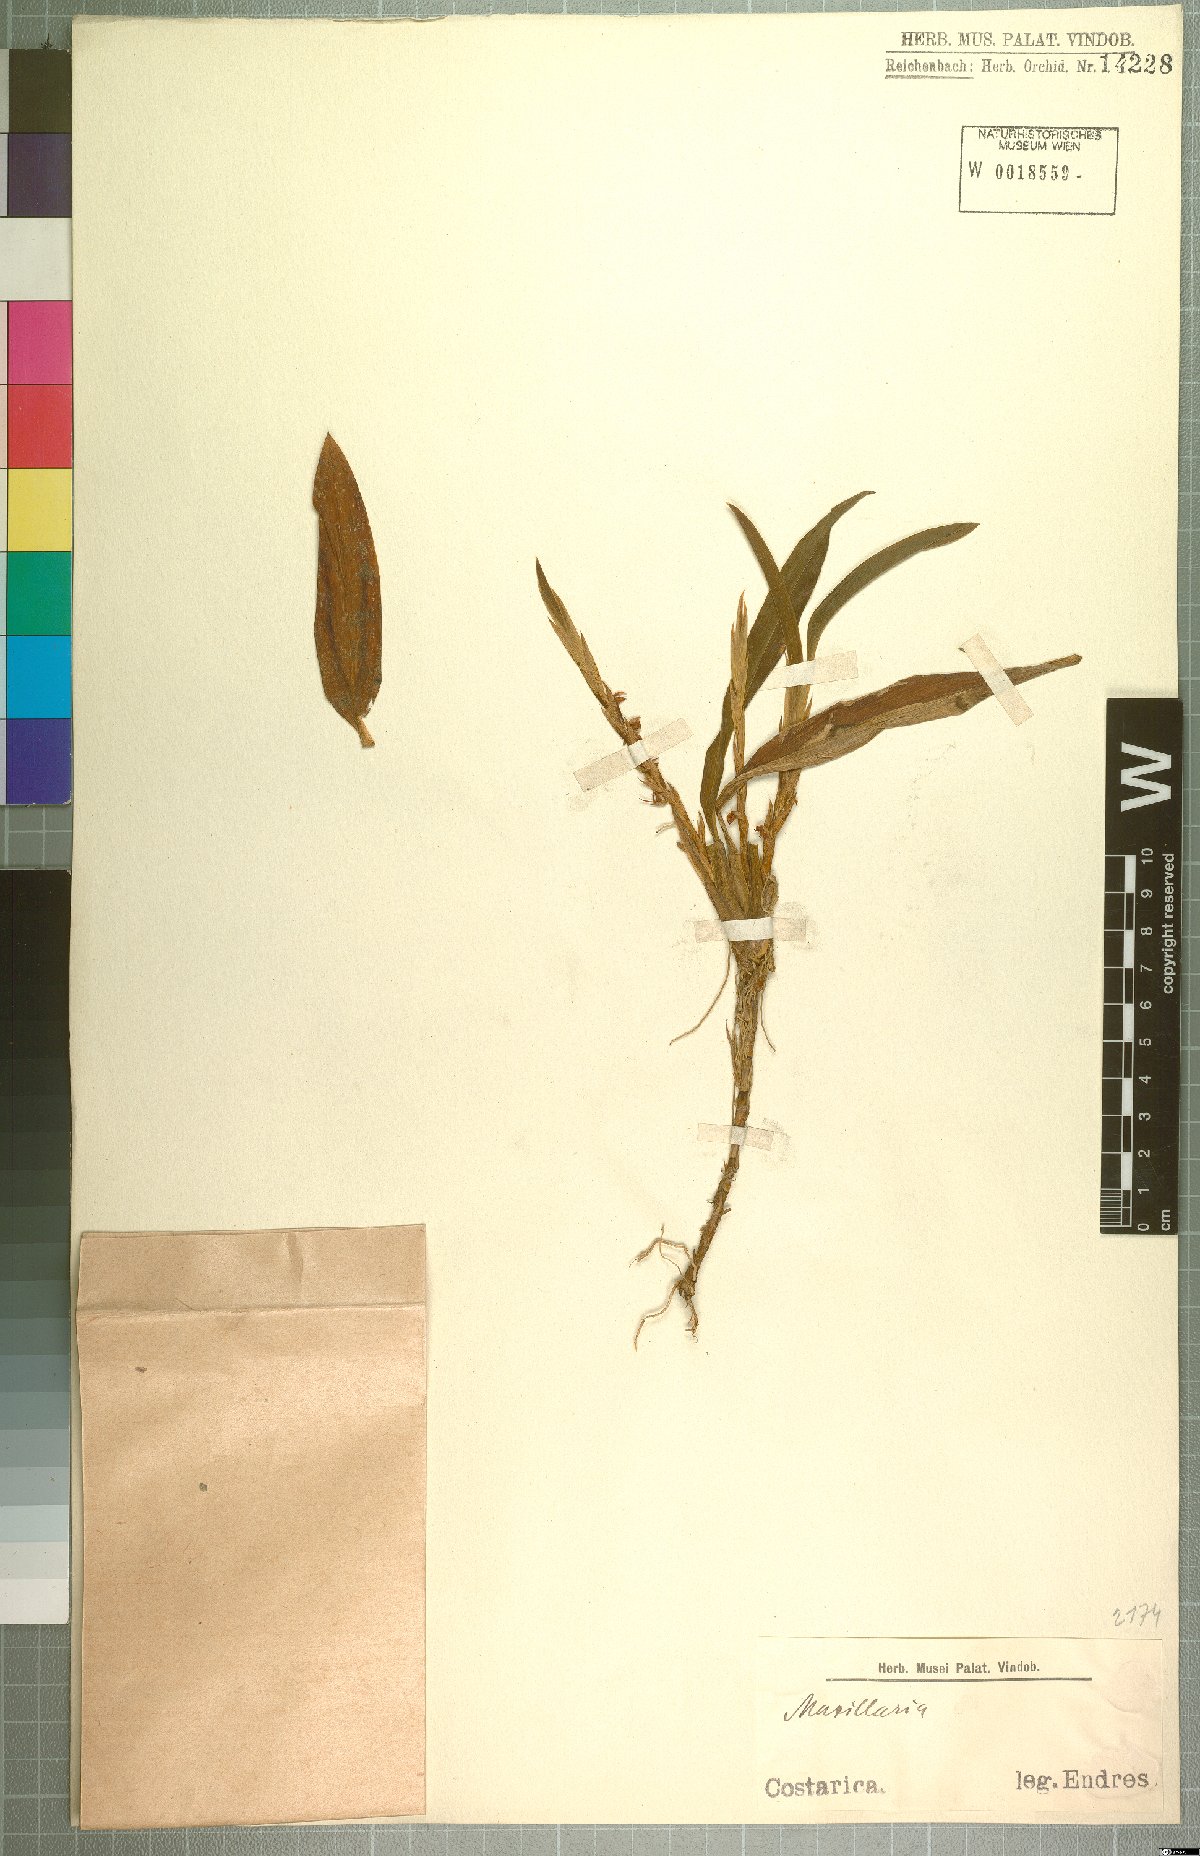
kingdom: Plantae
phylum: Tracheophyta
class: Liliopsida
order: Asparagales
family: Orchidaceae
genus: Maxillaria
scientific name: Maxillaria
